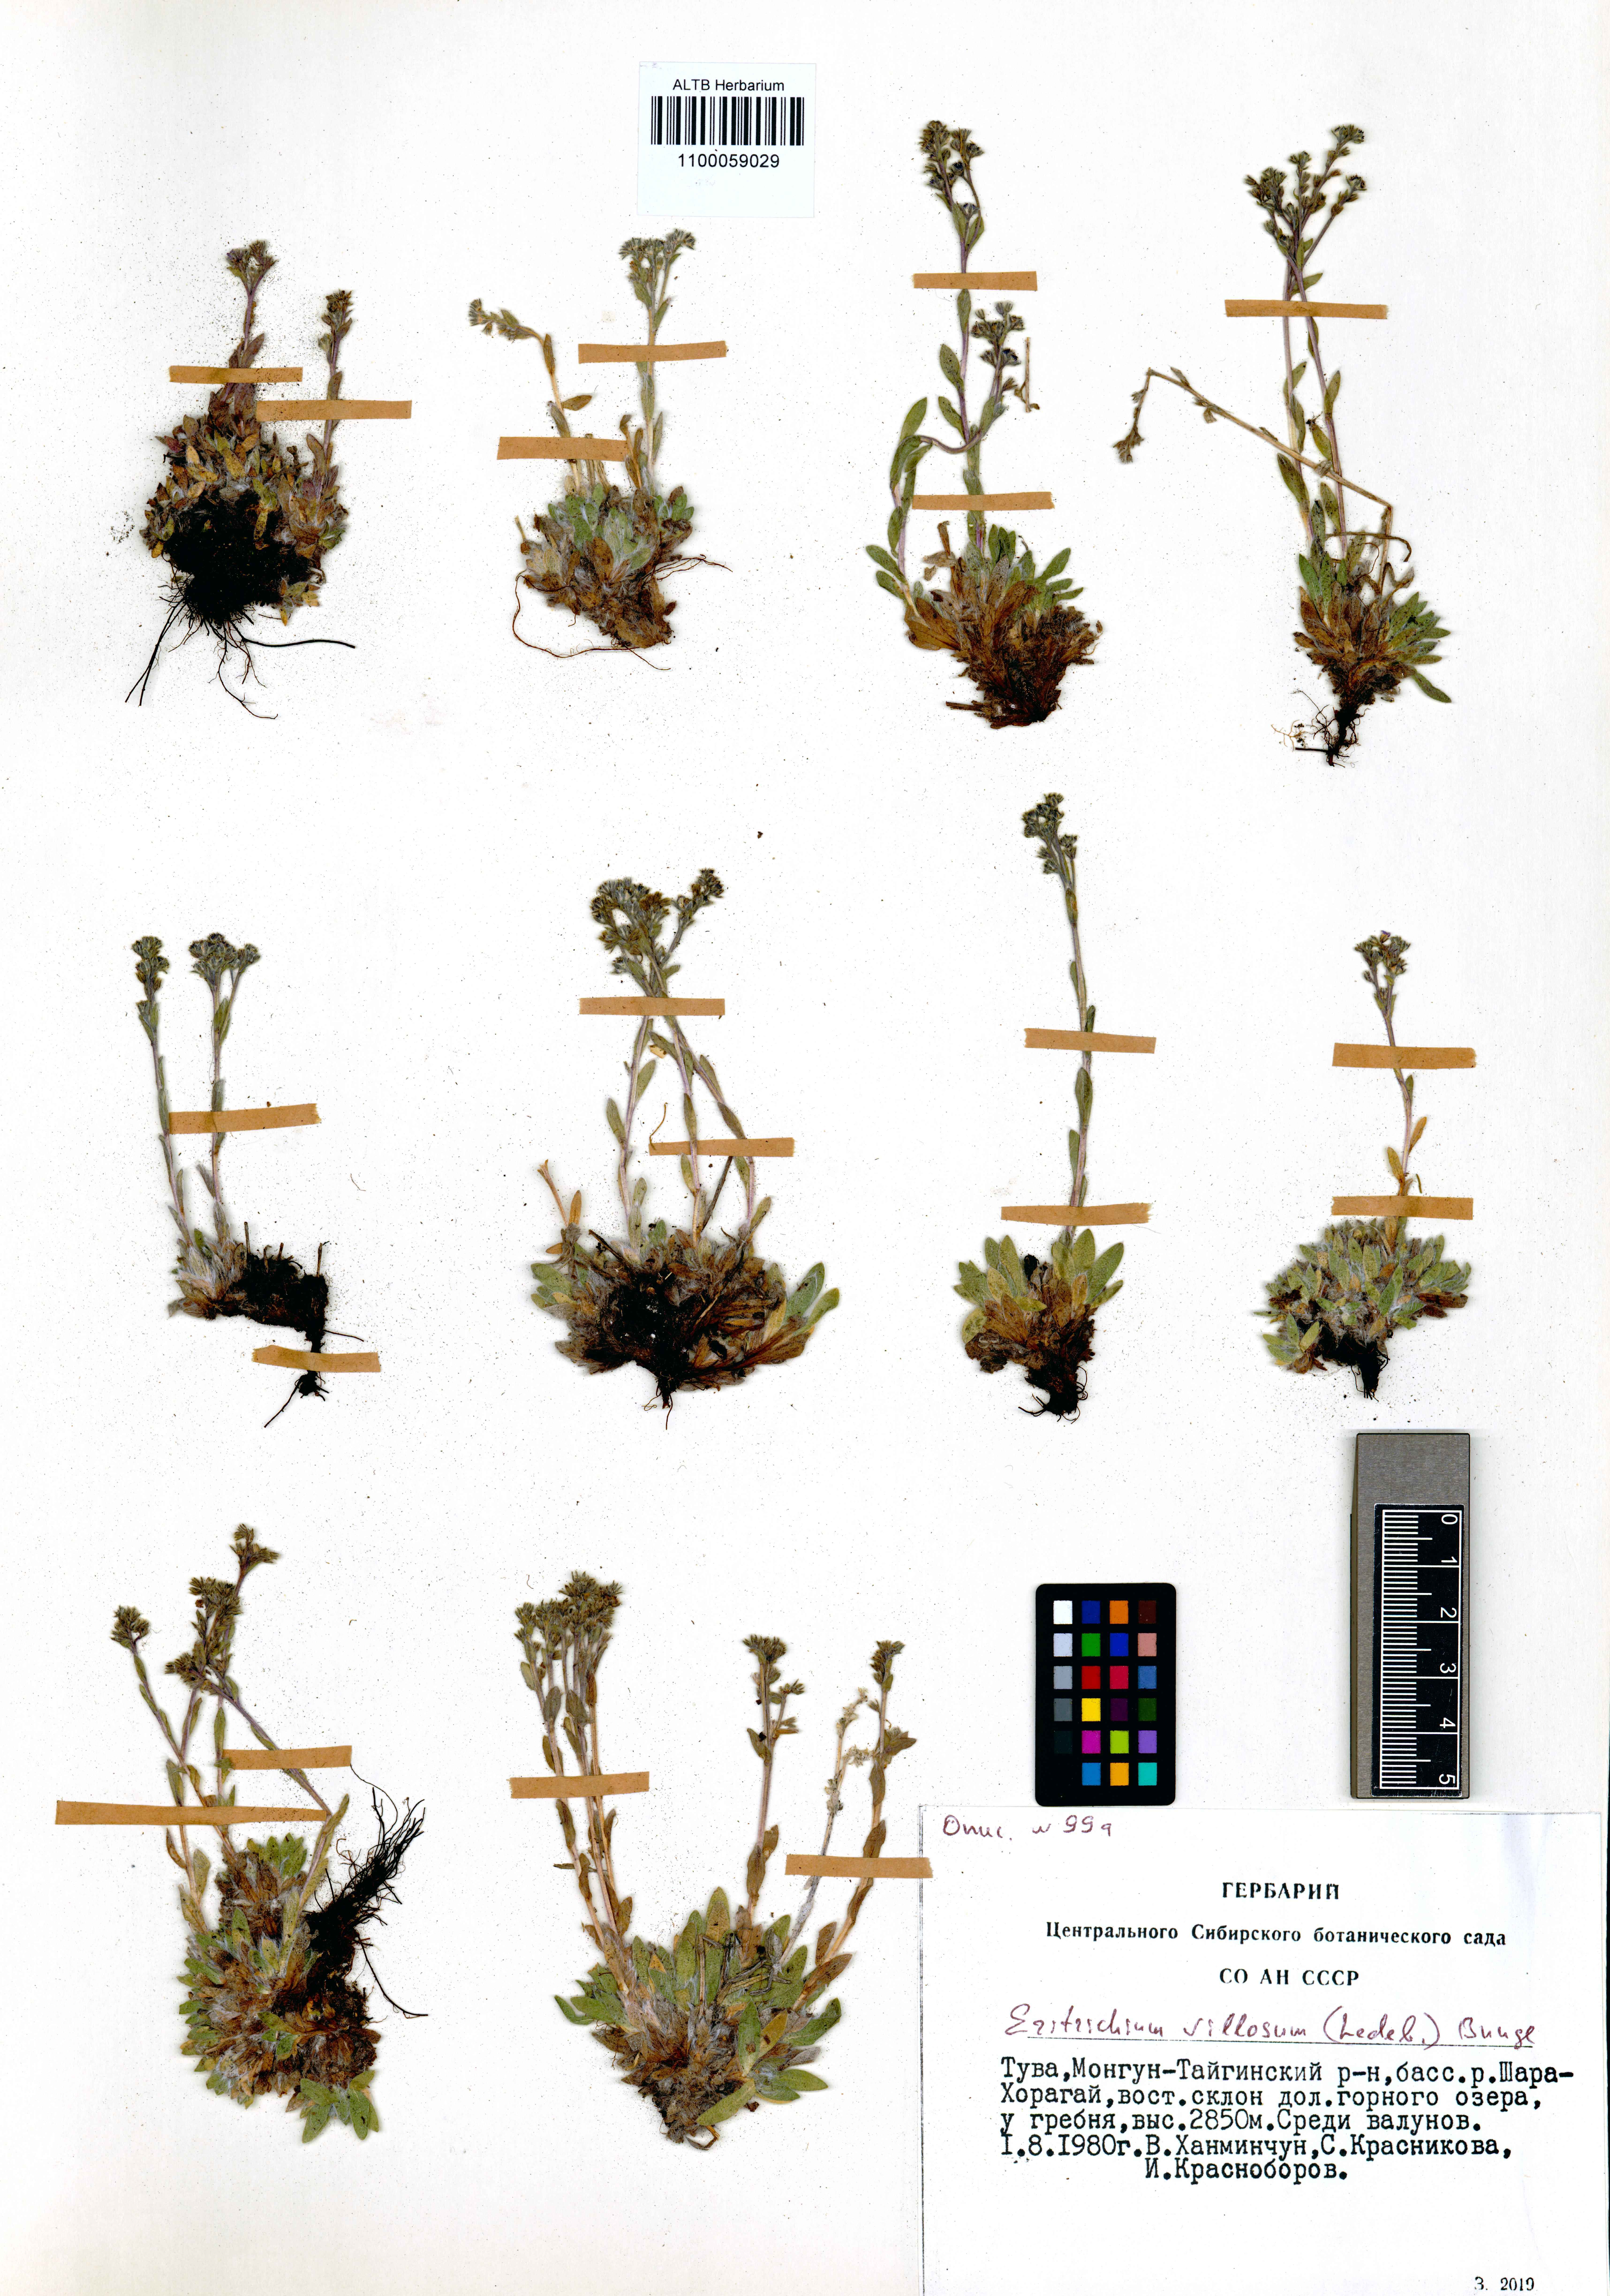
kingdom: Plantae
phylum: Tracheophyta
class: Magnoliopsida
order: Boraginales
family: Boraginaceae
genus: Eritrichium
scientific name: Eritrichium villosum
